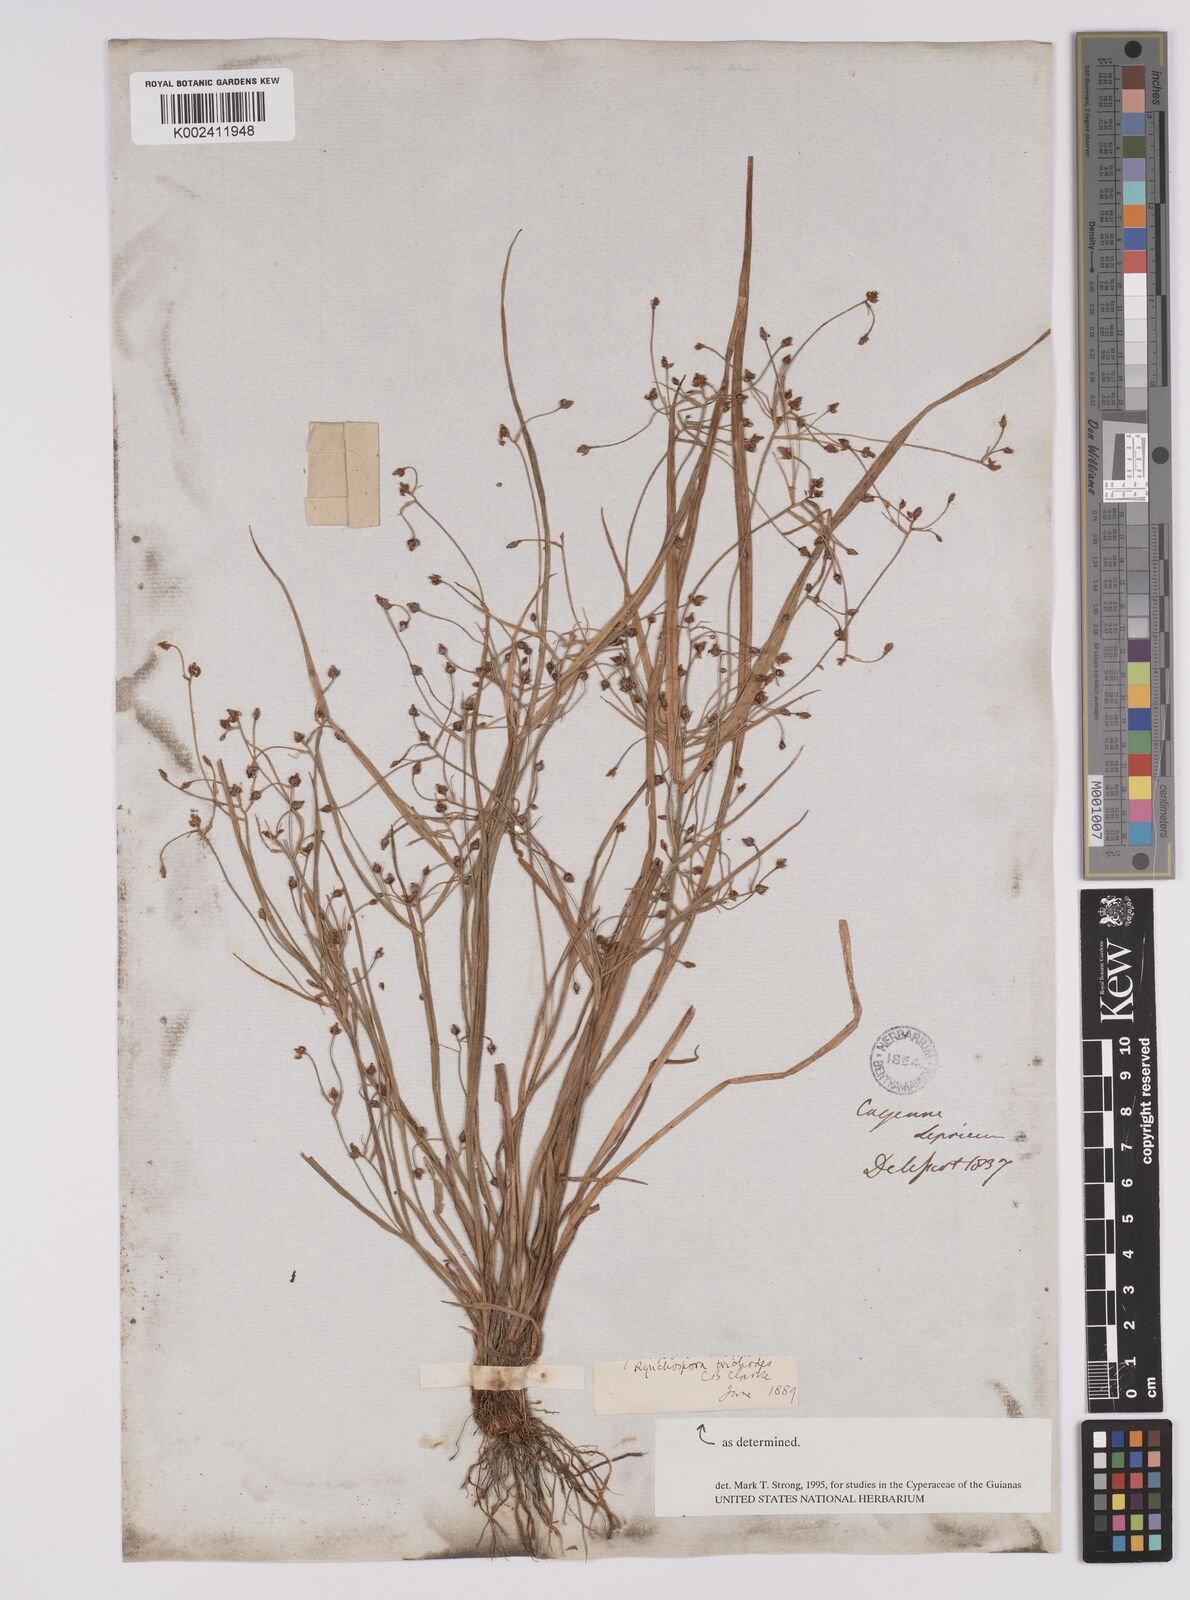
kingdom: Plantae
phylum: Tracheophyta
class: Liliopsida
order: Poales
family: Cyperaceae
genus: Rhynchospora
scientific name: Rhynchospora divaricata
